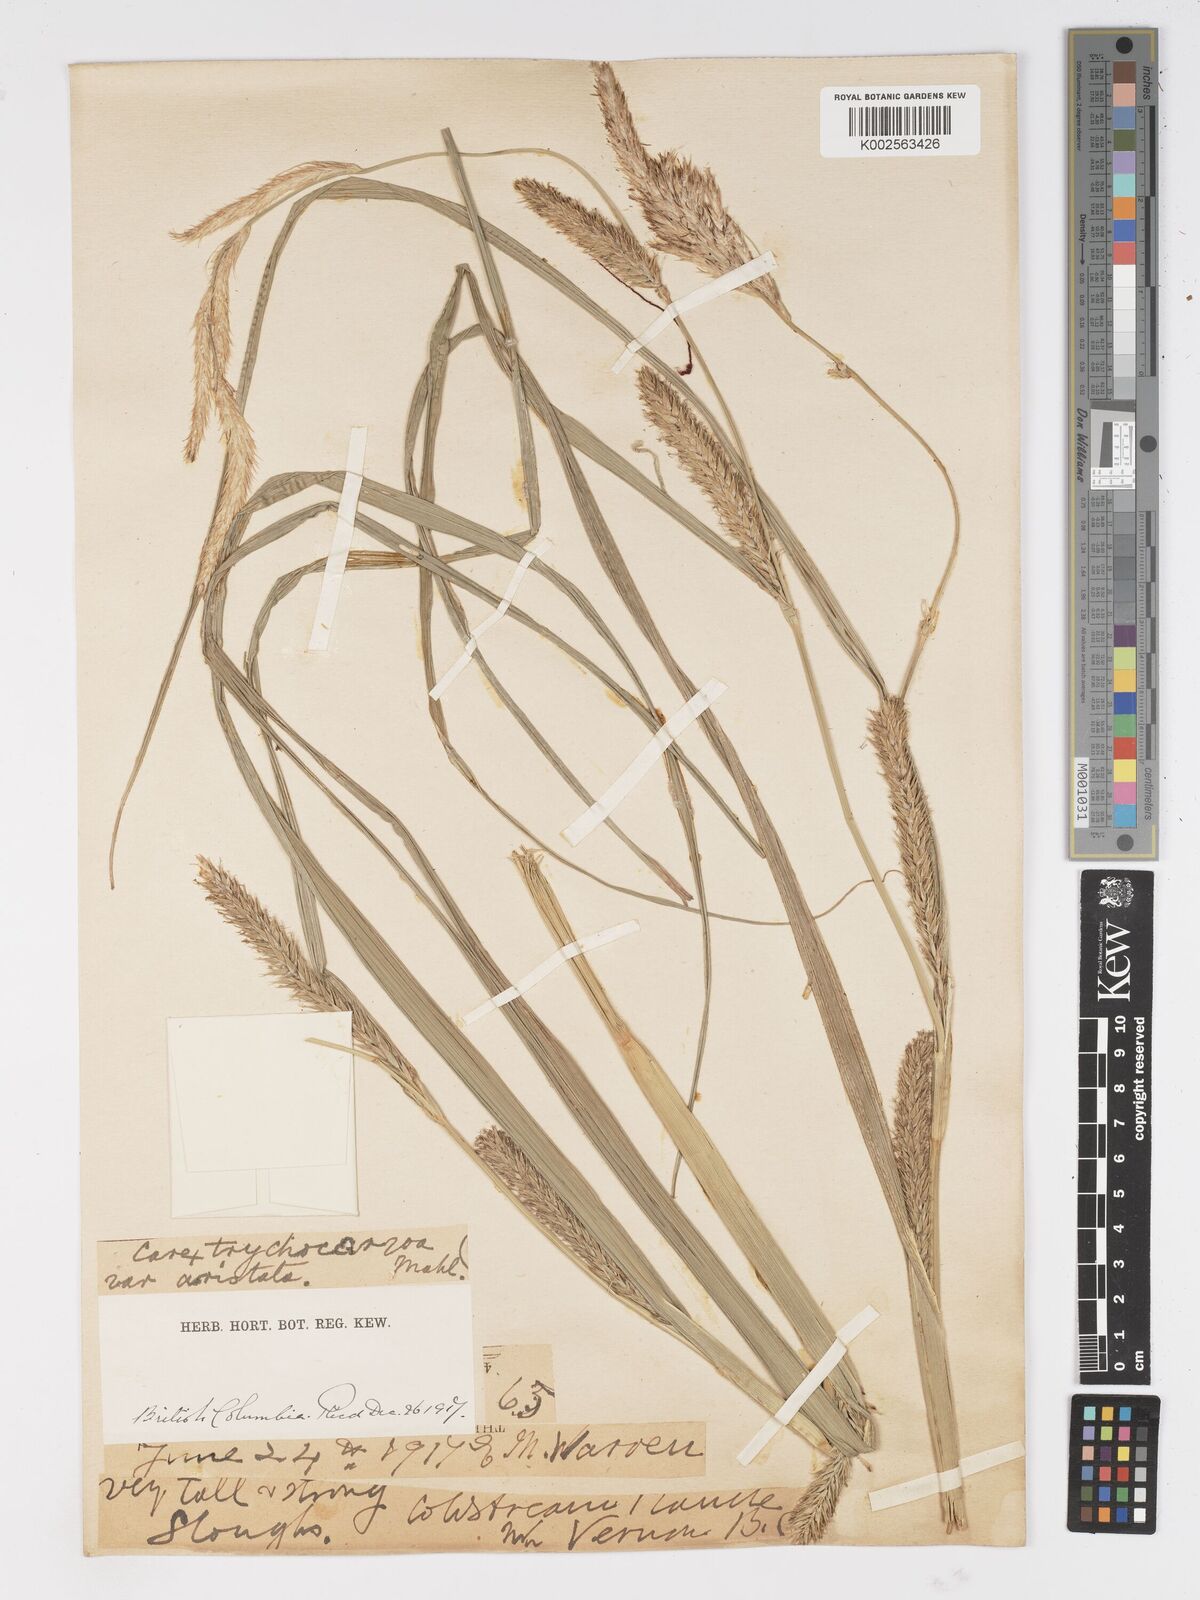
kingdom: Plantae
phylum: Tracheophyta
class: Liliopsida
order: Poales
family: Cyperaceae
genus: Carex
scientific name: Carex trichocarpa
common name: Hairy-fruited lake sedge
